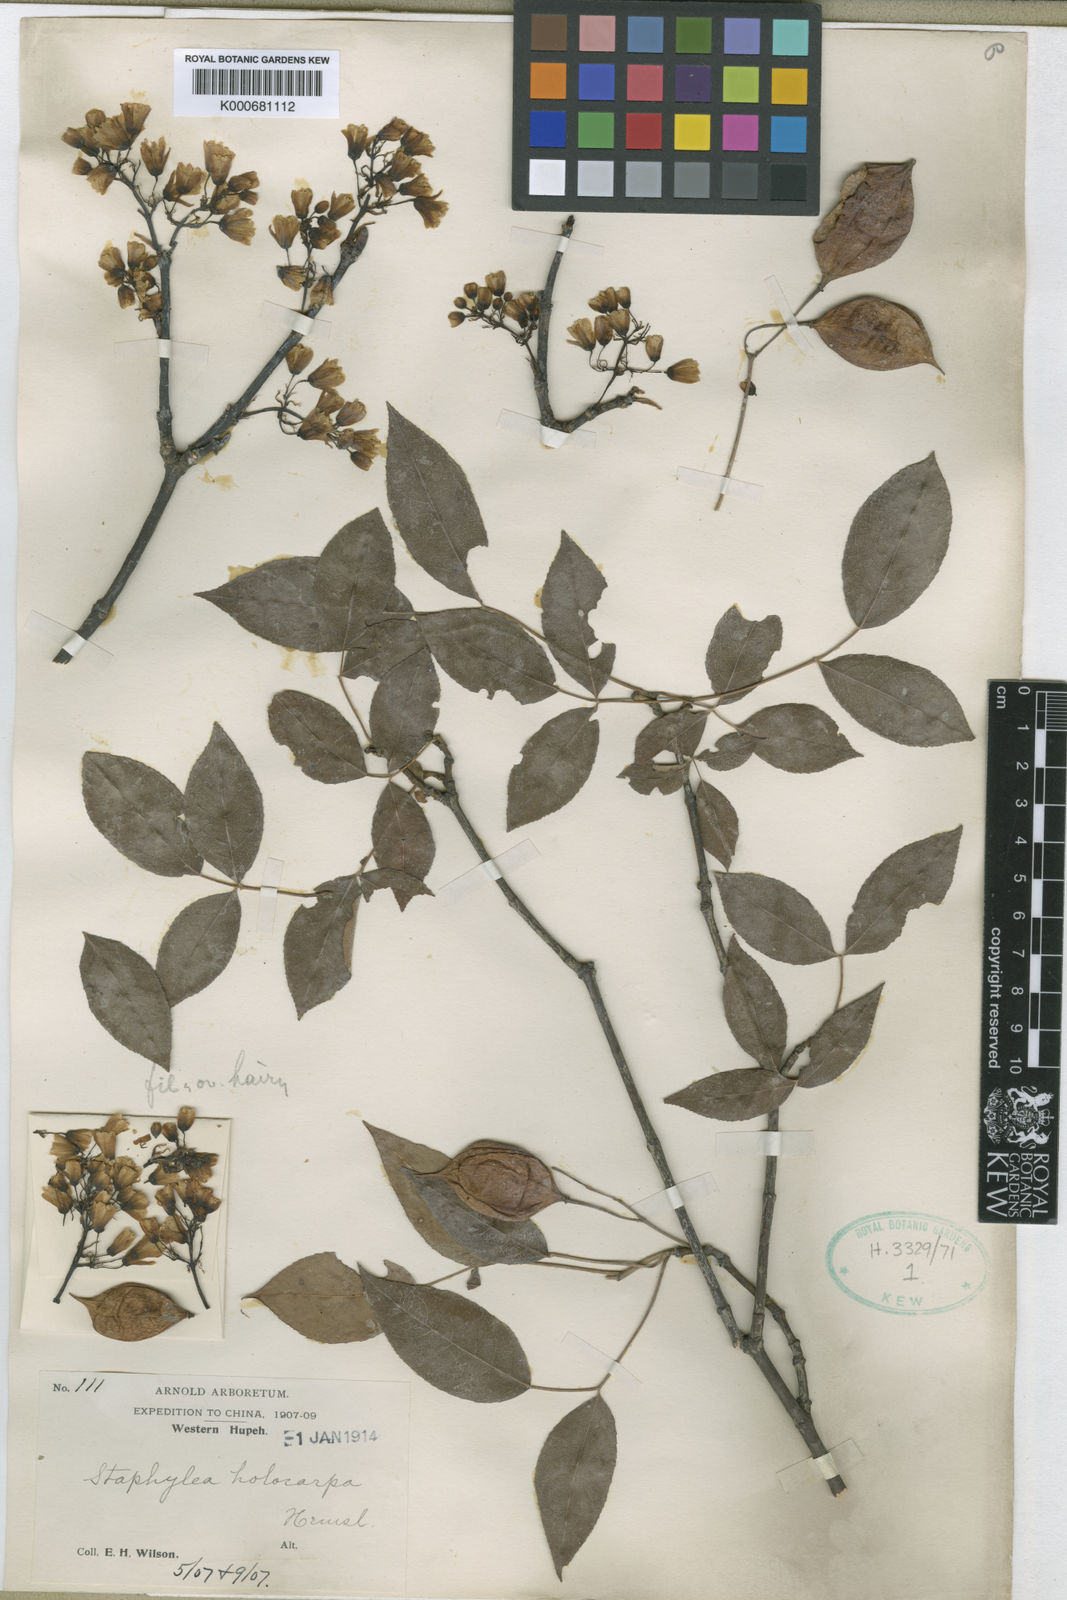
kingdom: Plantae
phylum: Tracheophyta
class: Magnoliopsida
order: Crossosomatales
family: Staphyleaceae
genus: Staphylea
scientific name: Staphylea holocarpa
